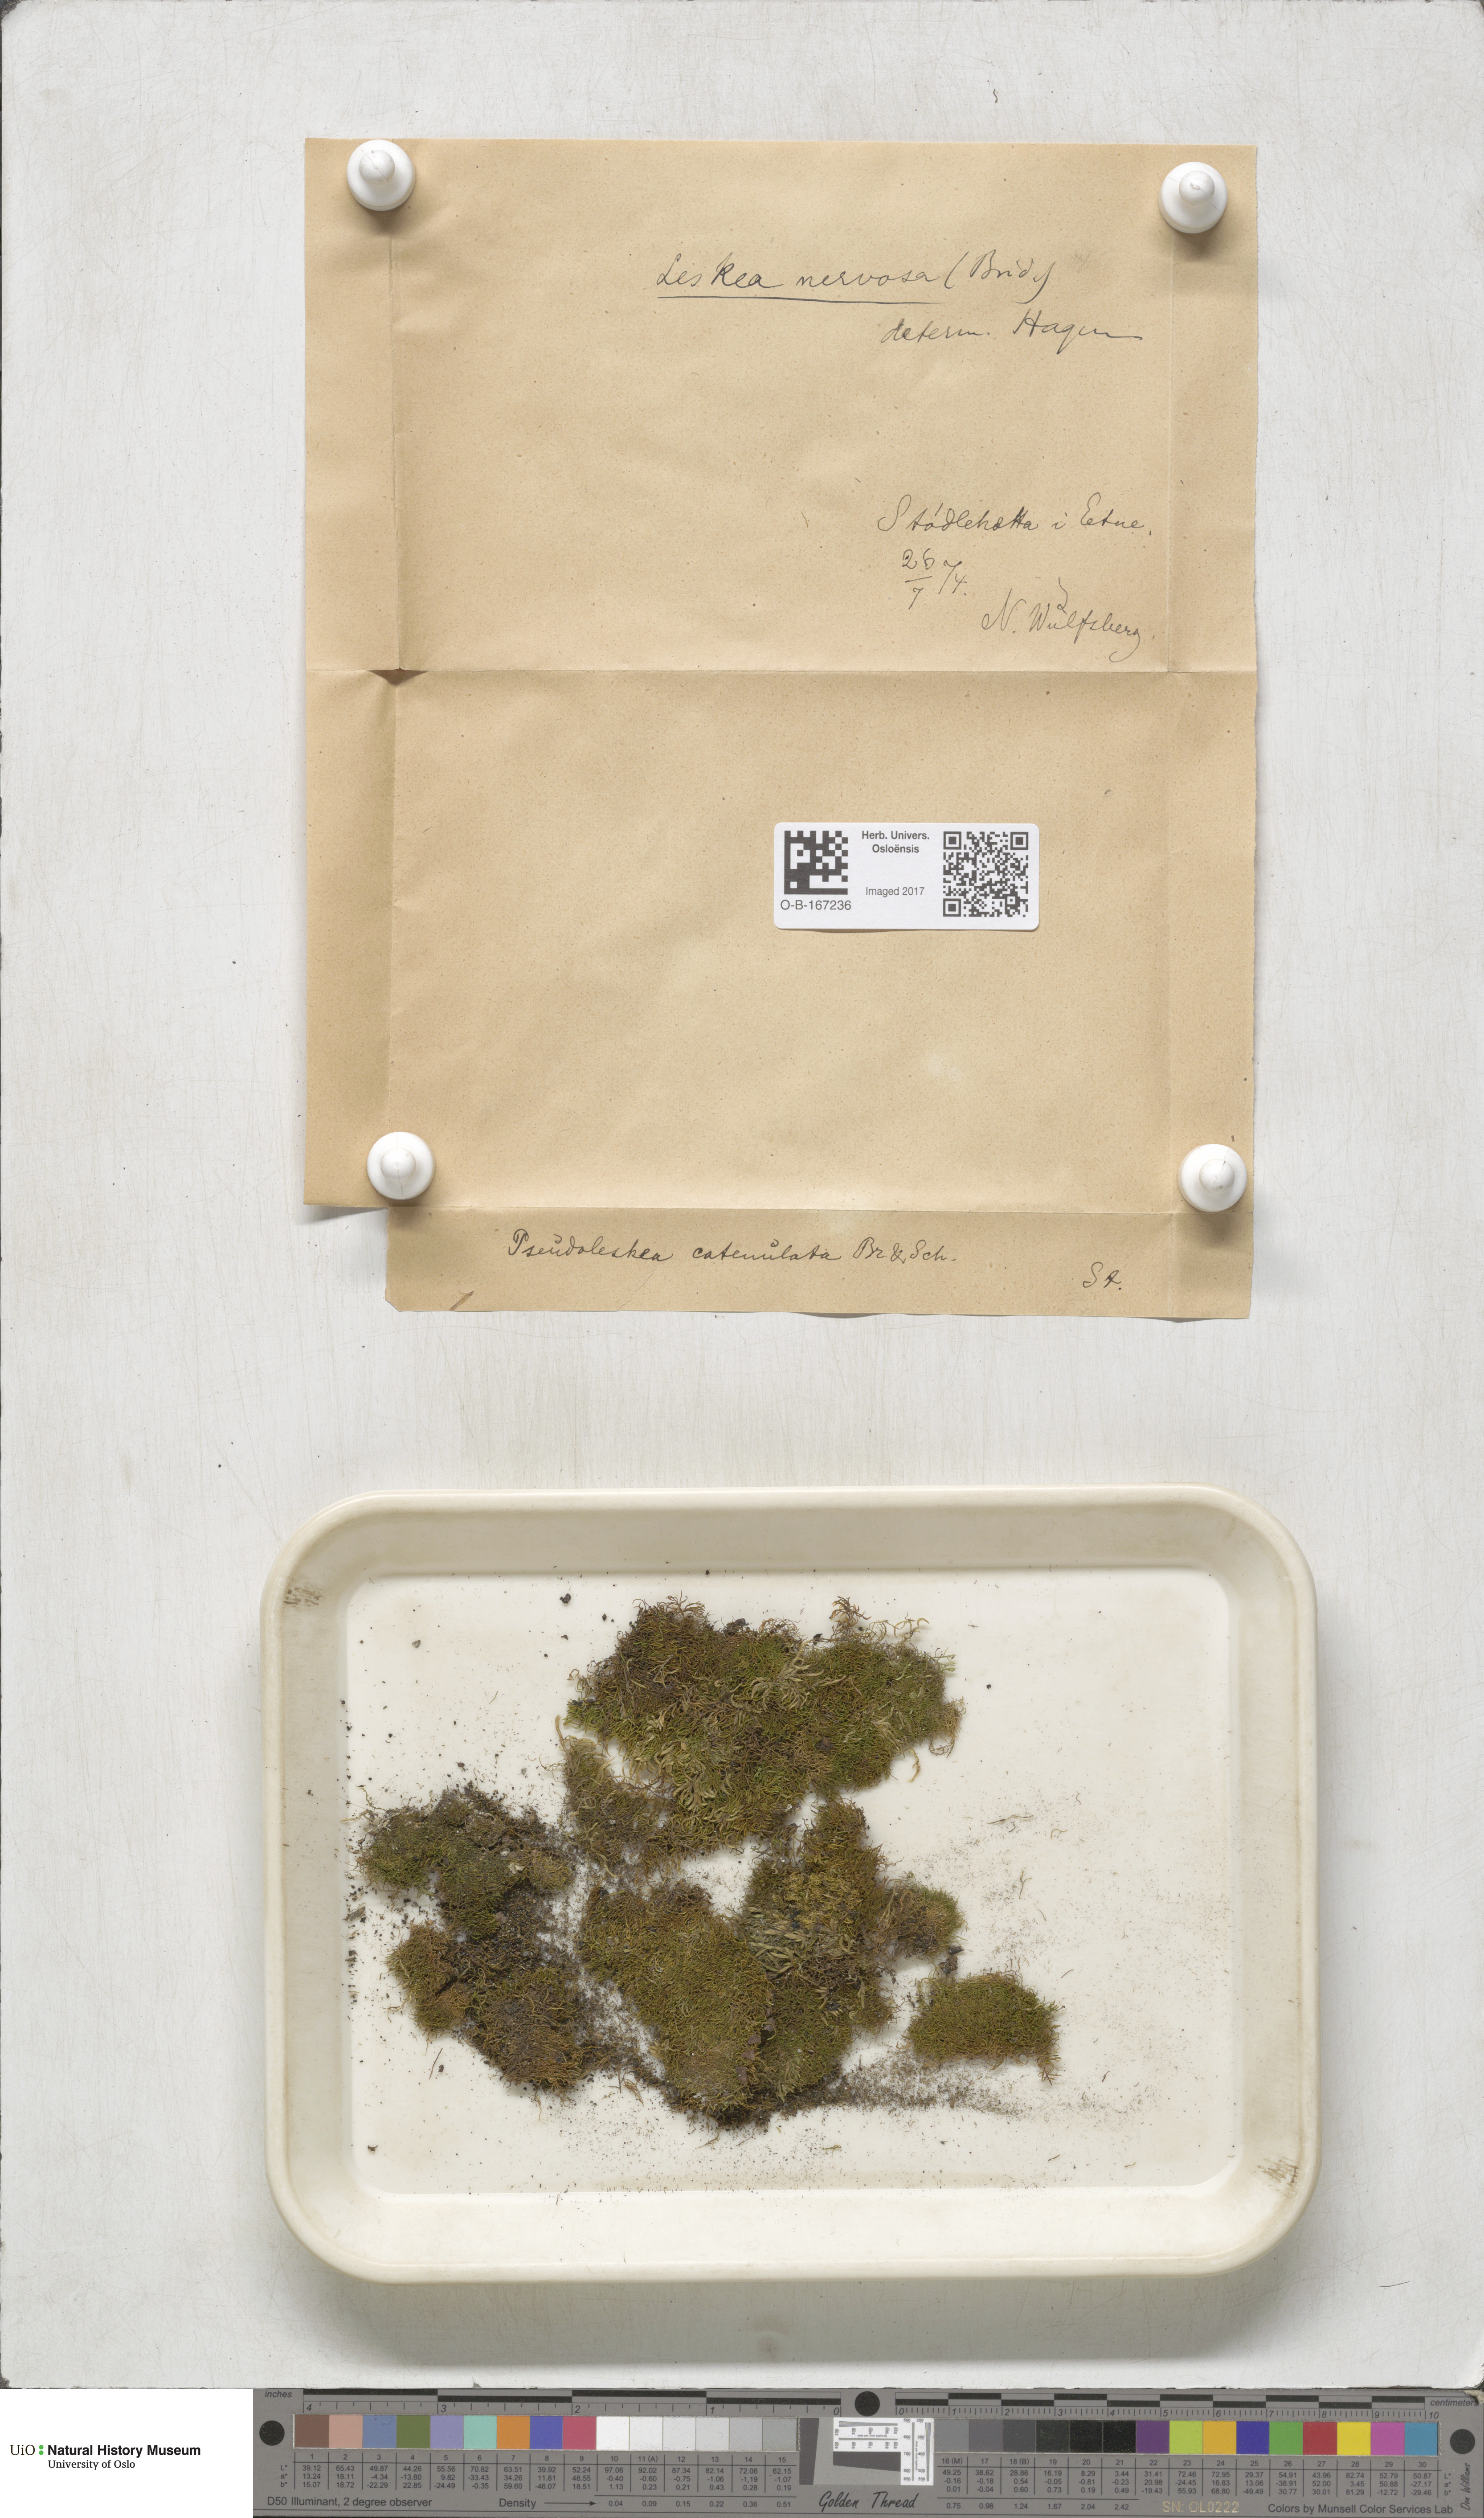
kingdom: Plantae
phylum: Bryophyta
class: Bryopsida
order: Hypnales
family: Pseudoleskeellaceae
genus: Pseudoleskeella
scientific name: Pseudoleskeella nervosa
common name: Nerved leske's moss
